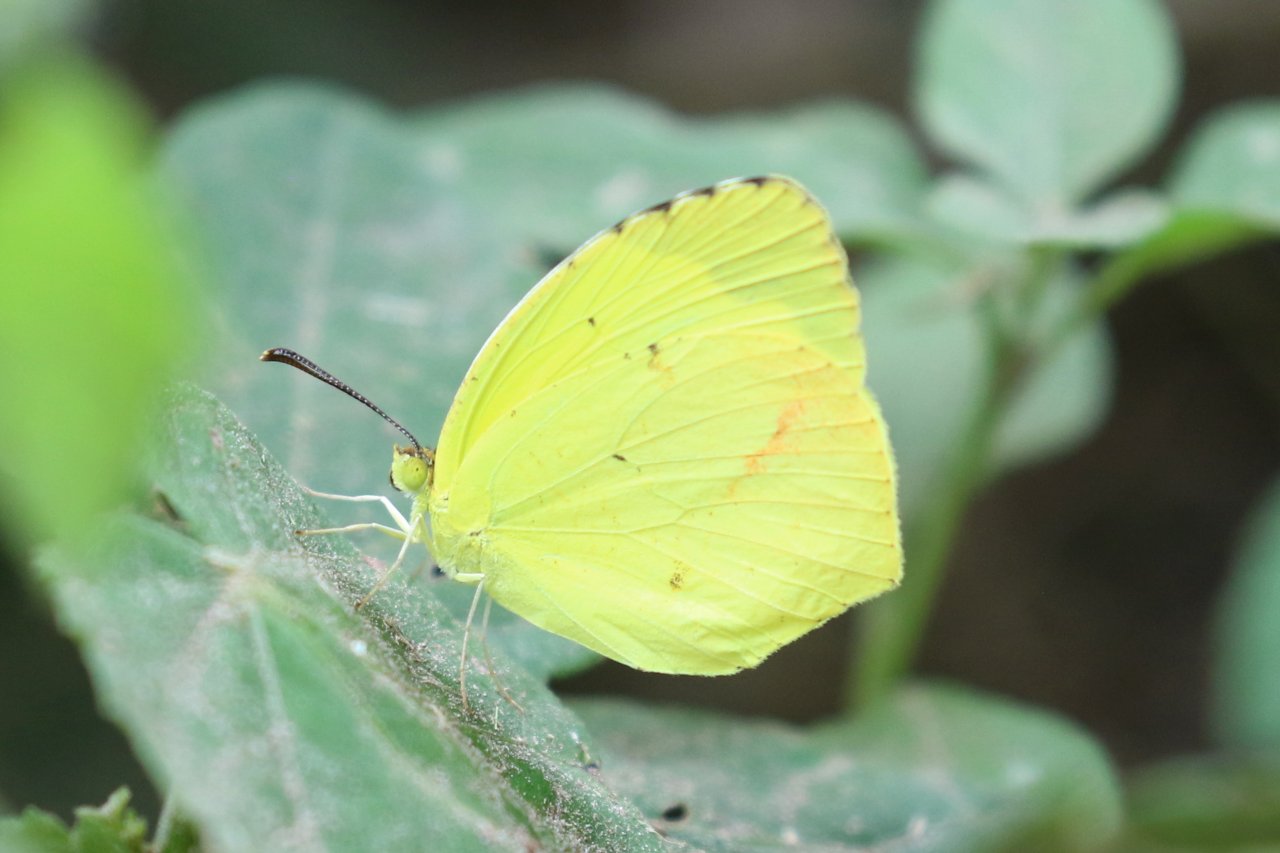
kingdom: Animalia
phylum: Arthropoda
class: Insecta
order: Lepidoptera
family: Pieridae
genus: Eurema
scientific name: Eurema boisduvaliana
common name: Boisduval's Yellow
